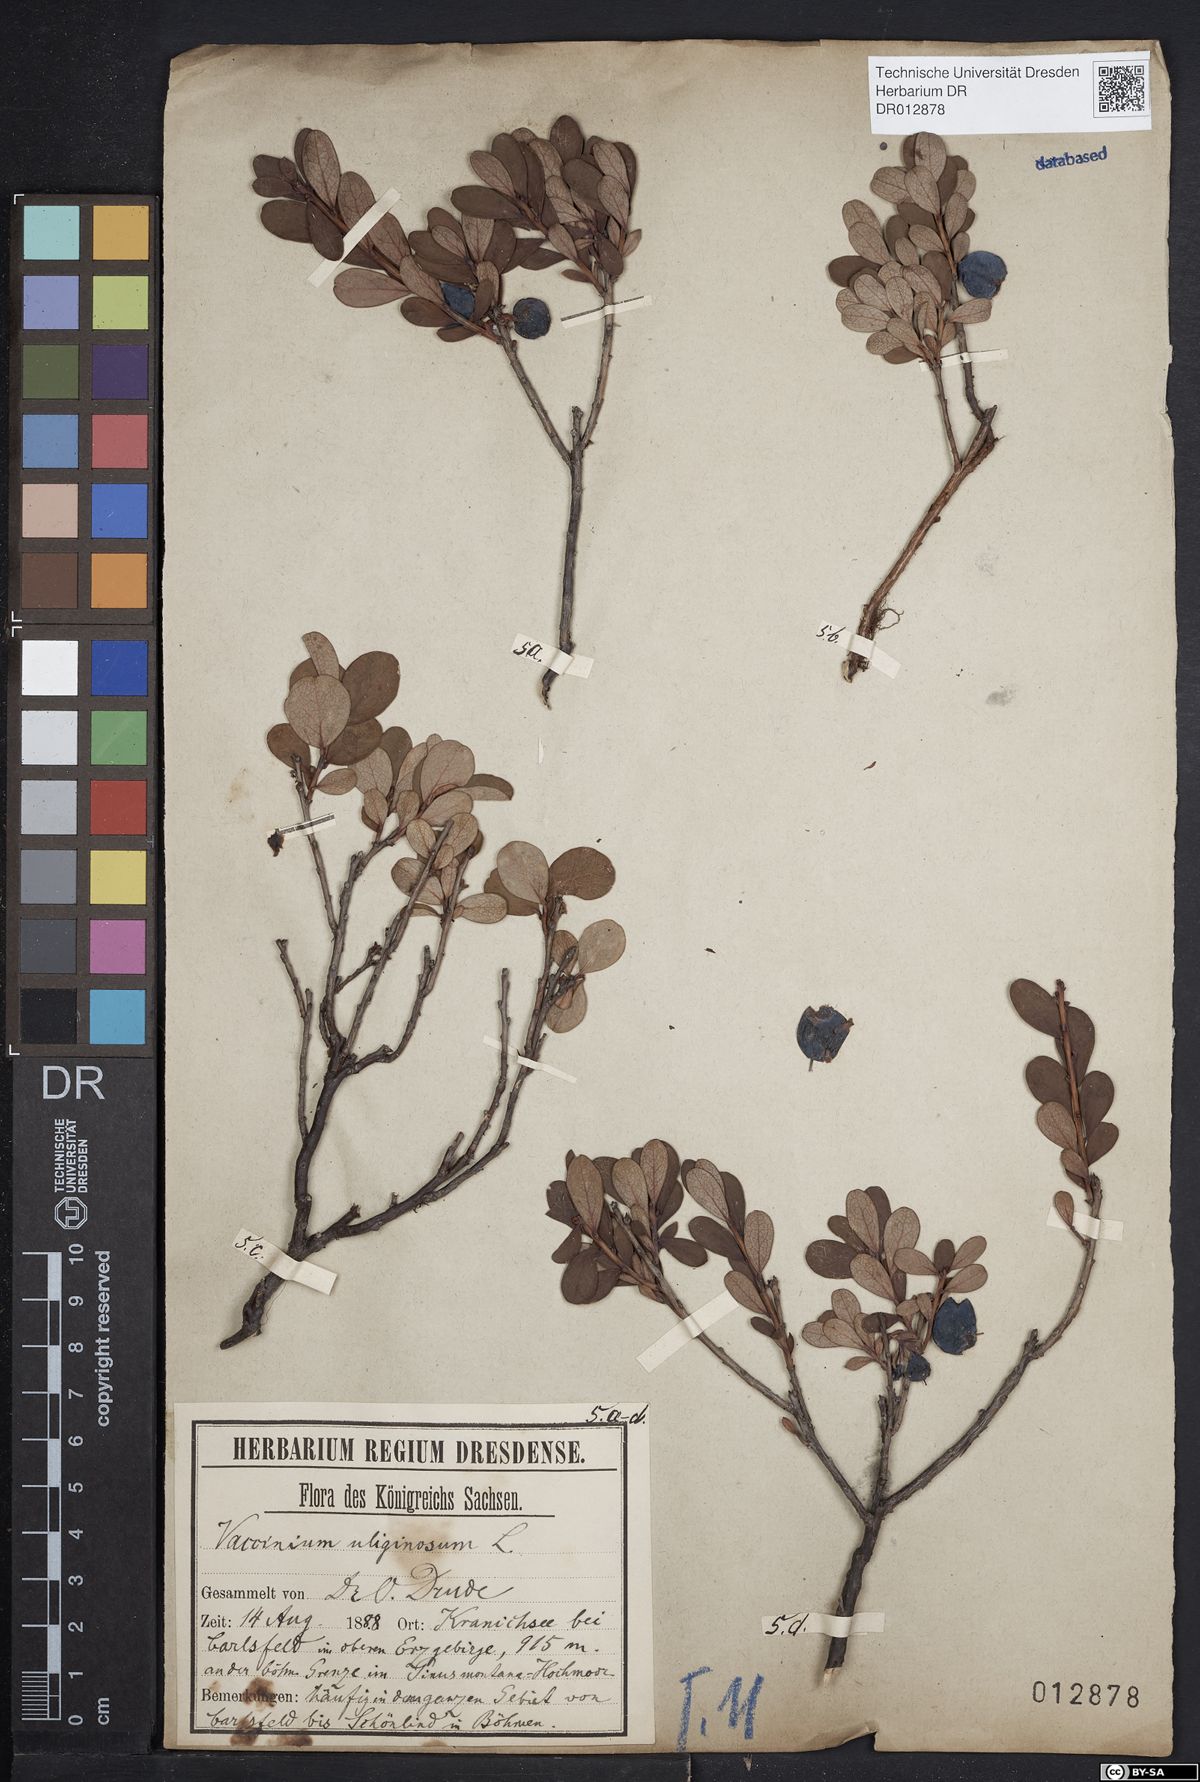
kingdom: Plantae
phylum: Tracheophyta
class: Magnoliopsida
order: Ericales
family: Ericaceae
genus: Vaccinium
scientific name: Vaccinium uliginosum
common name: Bog bilberry
